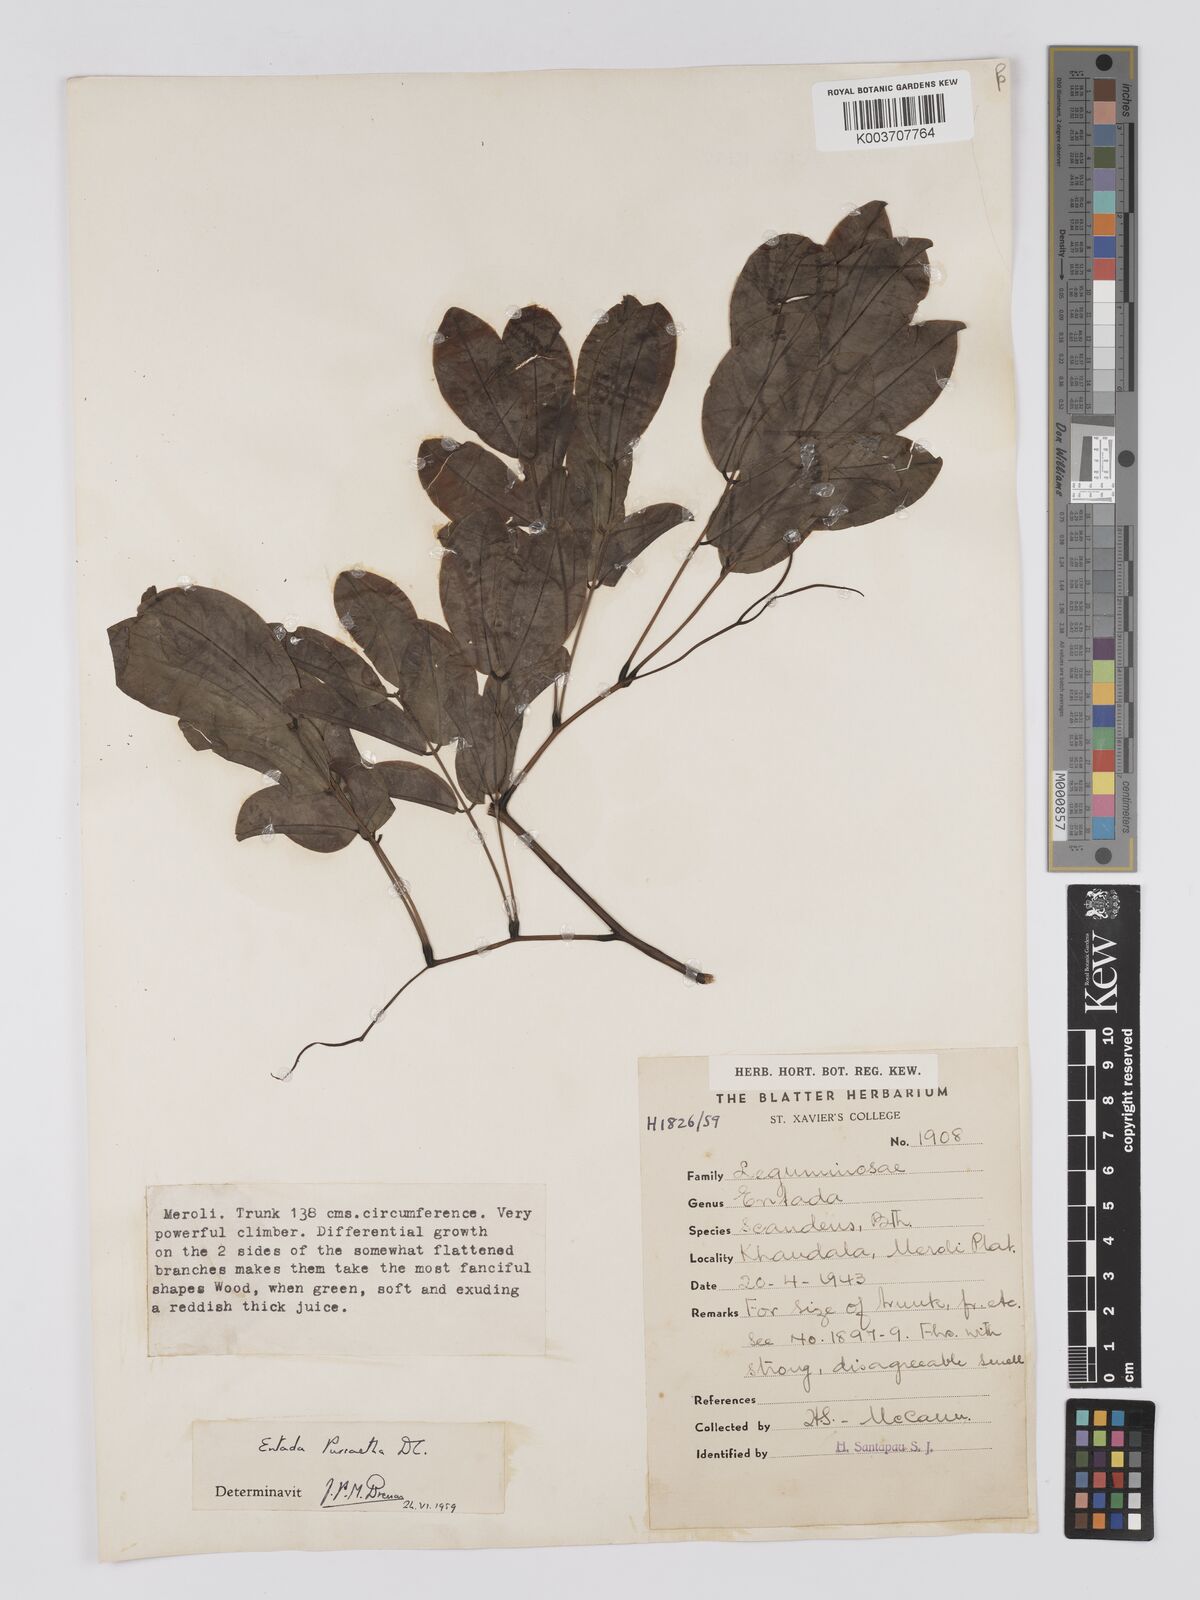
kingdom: Plantae
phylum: Tracheophyta
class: Magnoliopsida
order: Fabales
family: Fabaceae
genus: Entada
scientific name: Entada rheedei
